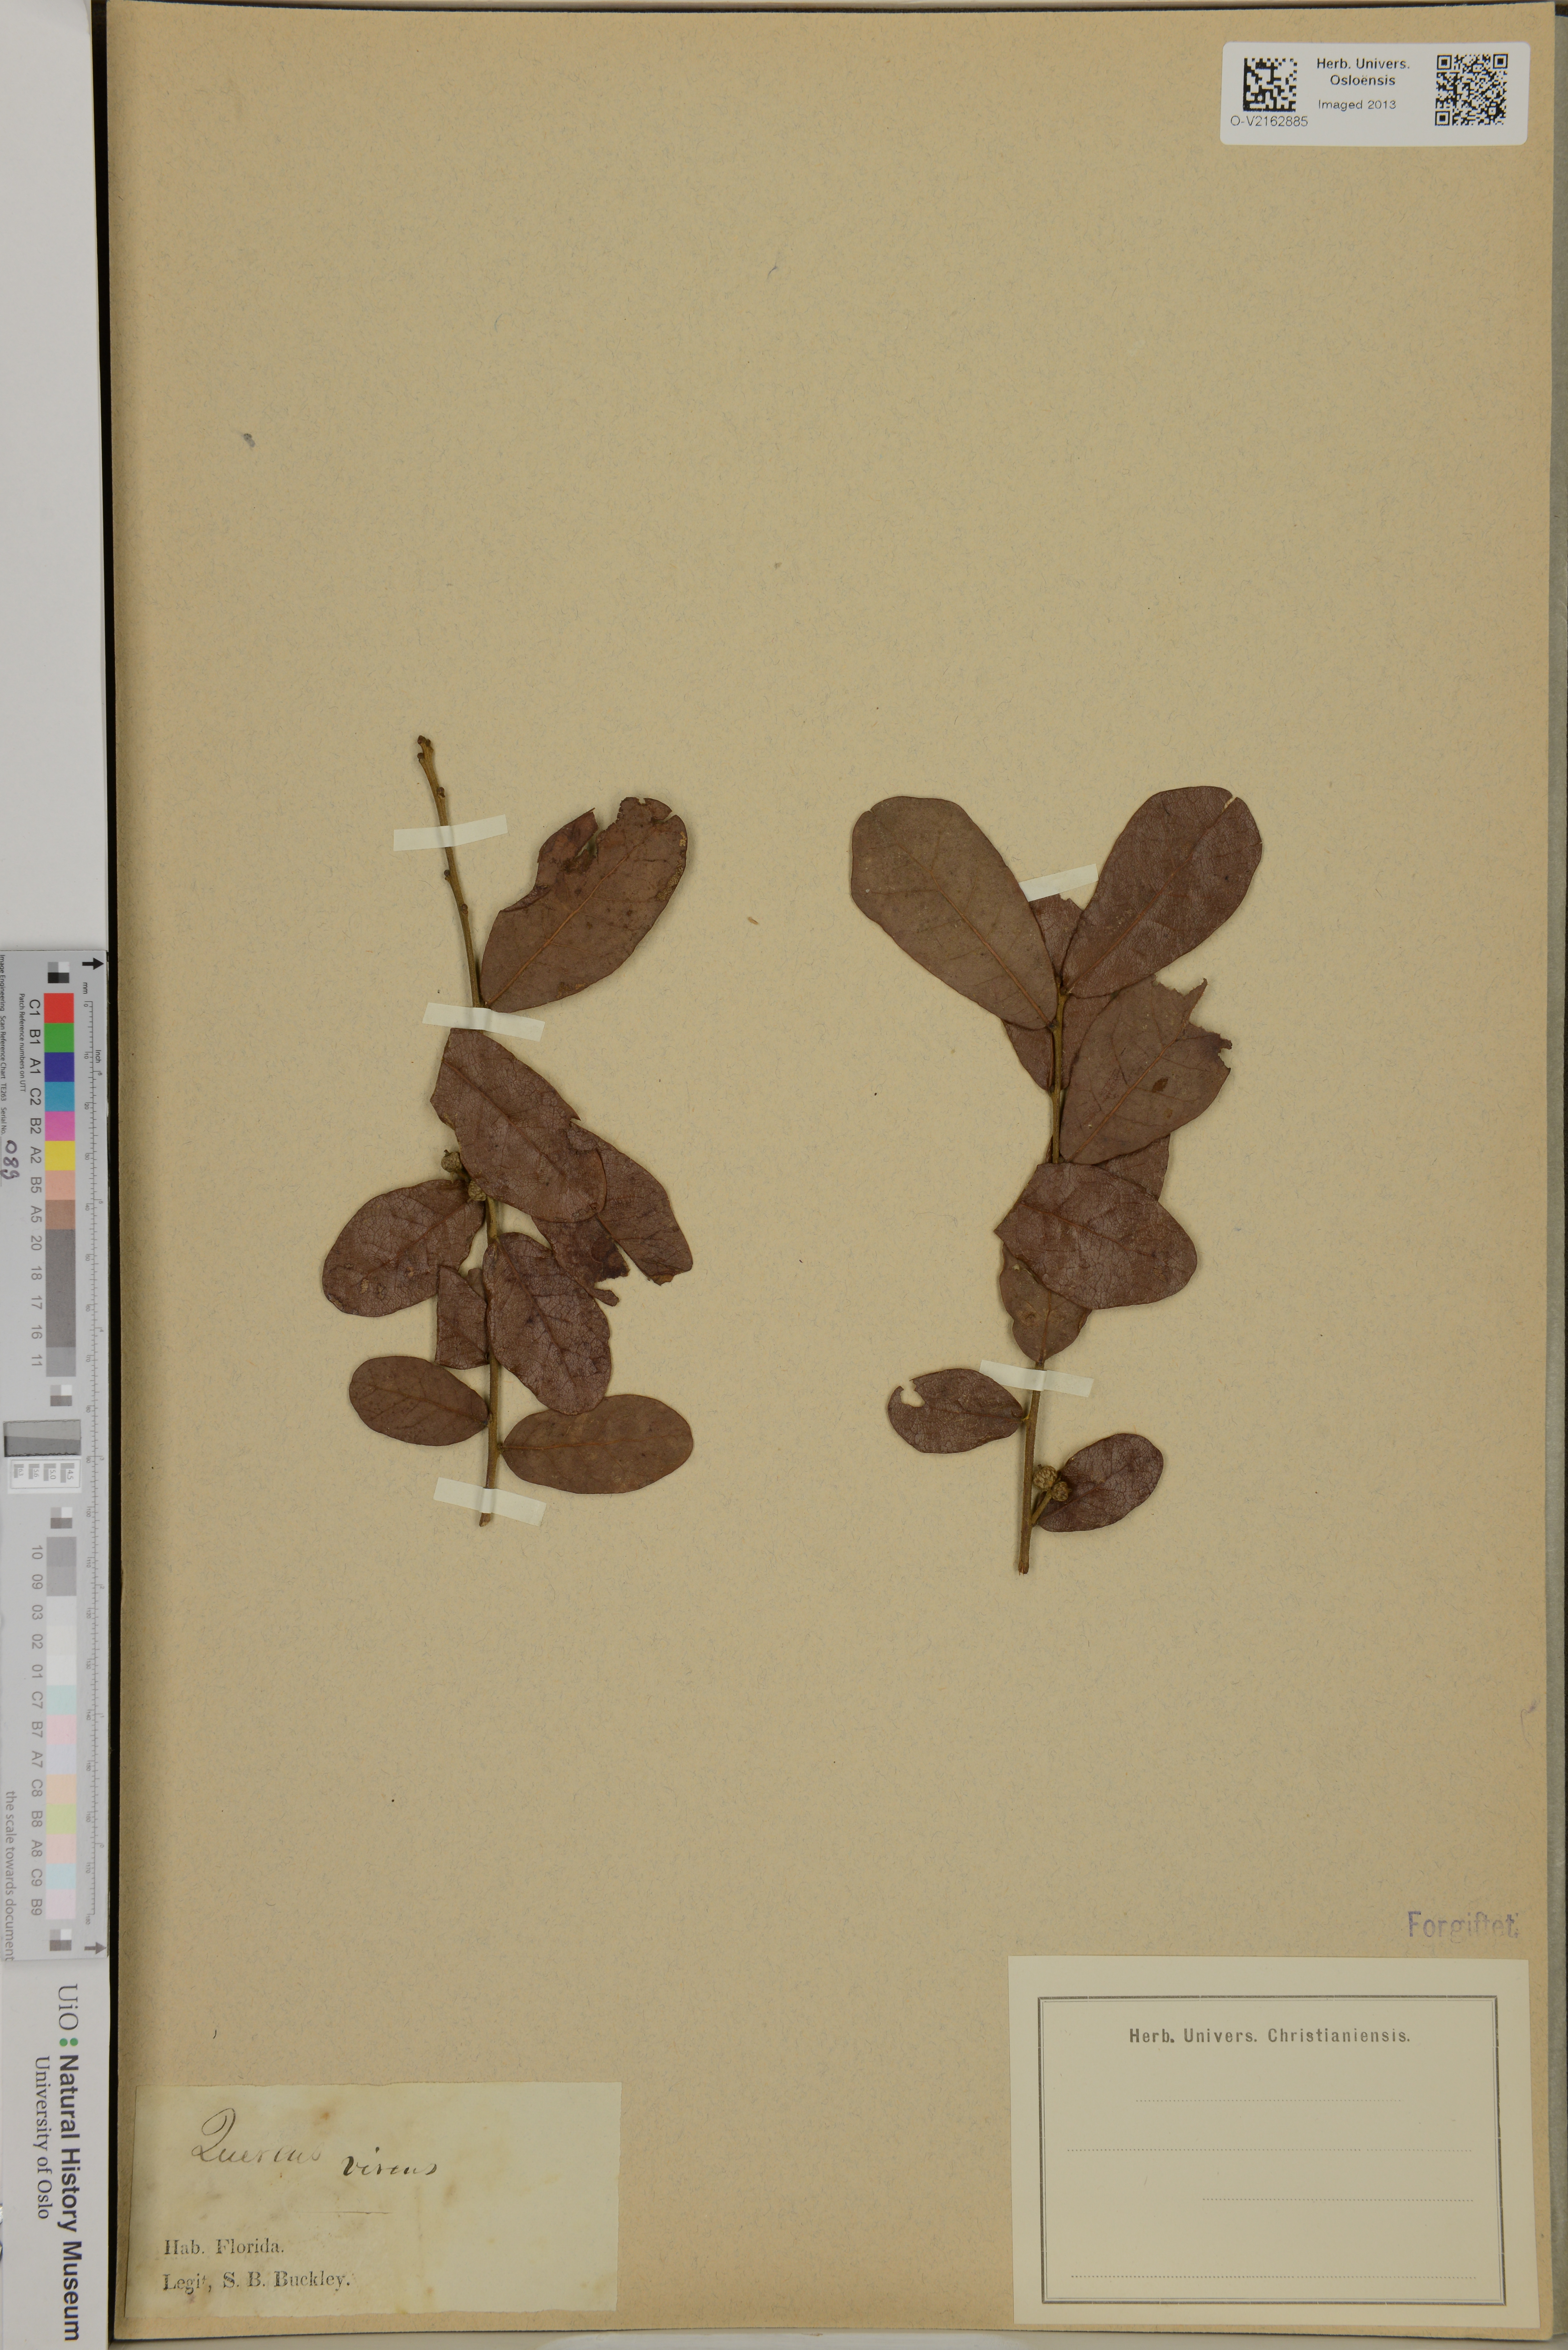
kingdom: Plantae
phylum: Tracheophyta
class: Magnoliopsida
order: Fagales
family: Fagaceae
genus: Quercus
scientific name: Quercus virginiana
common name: Southern live oak
